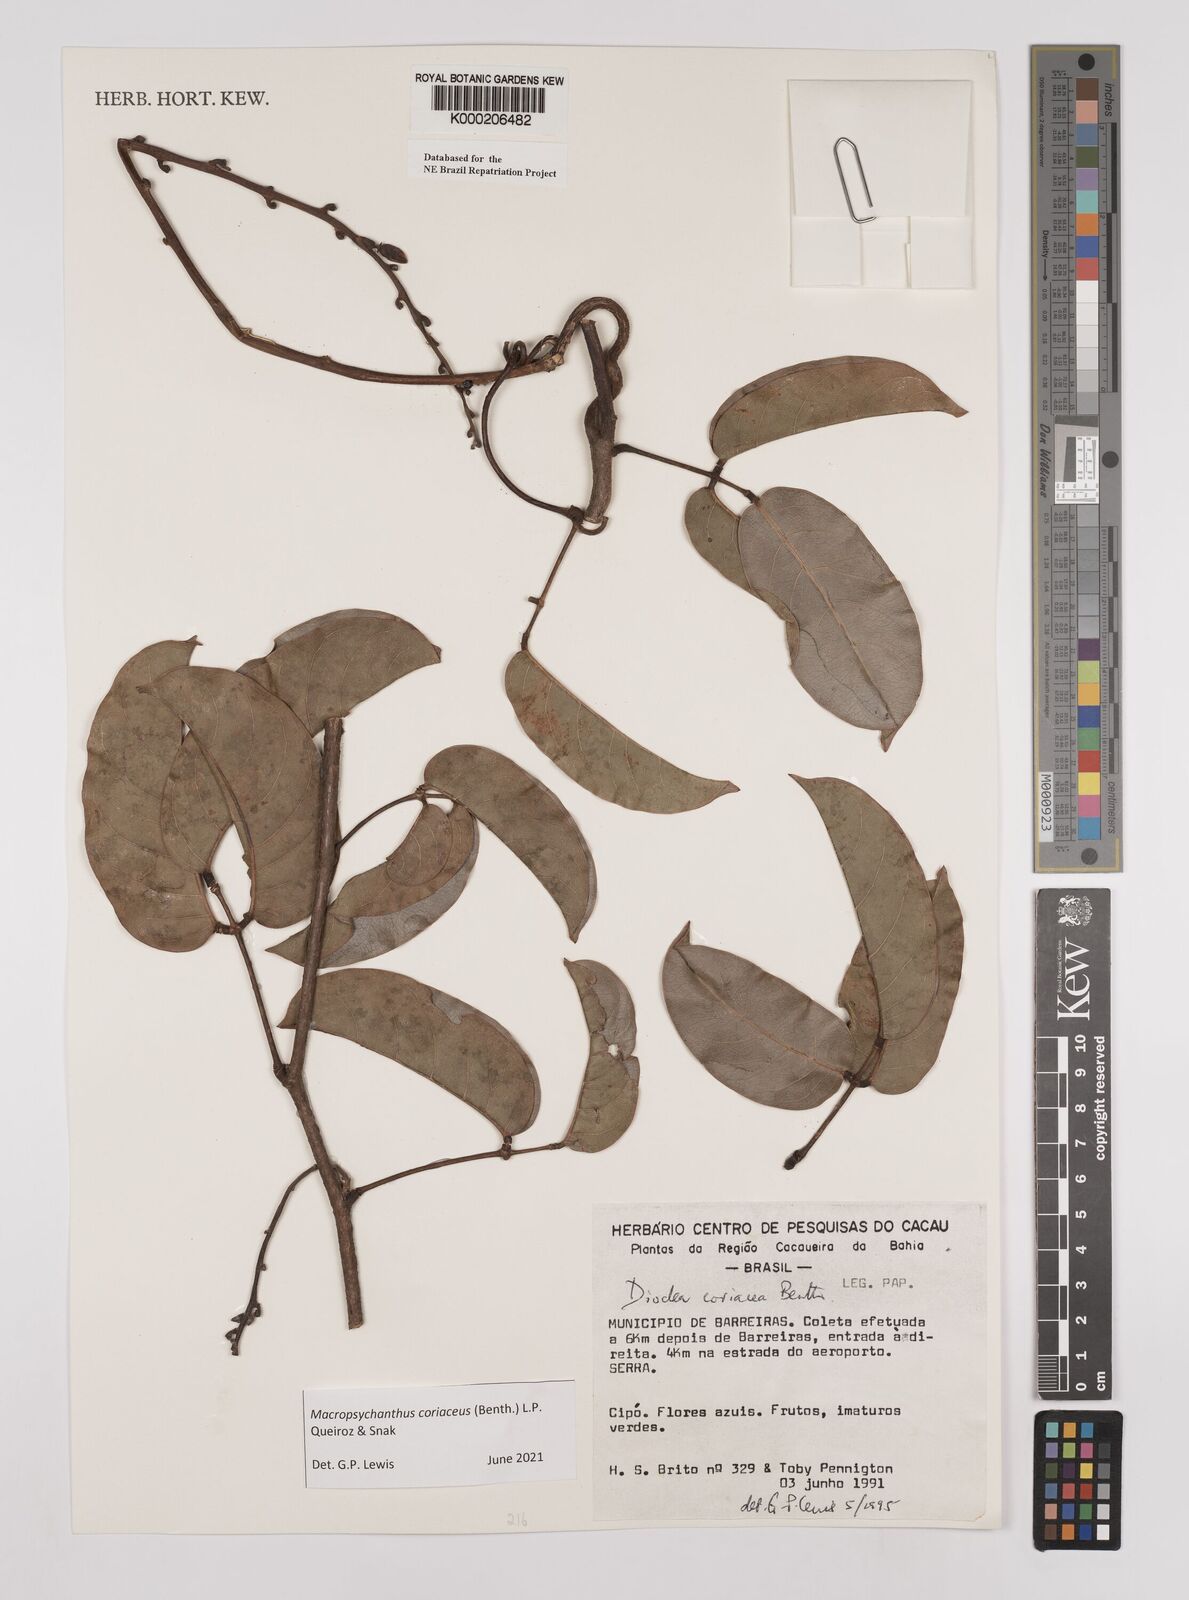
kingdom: Plantae
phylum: Tracheophyta
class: Magnoliopsida
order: Fabales
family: Fabaceae
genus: Macropsychanthus
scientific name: Macropsychanthus coriaceus
